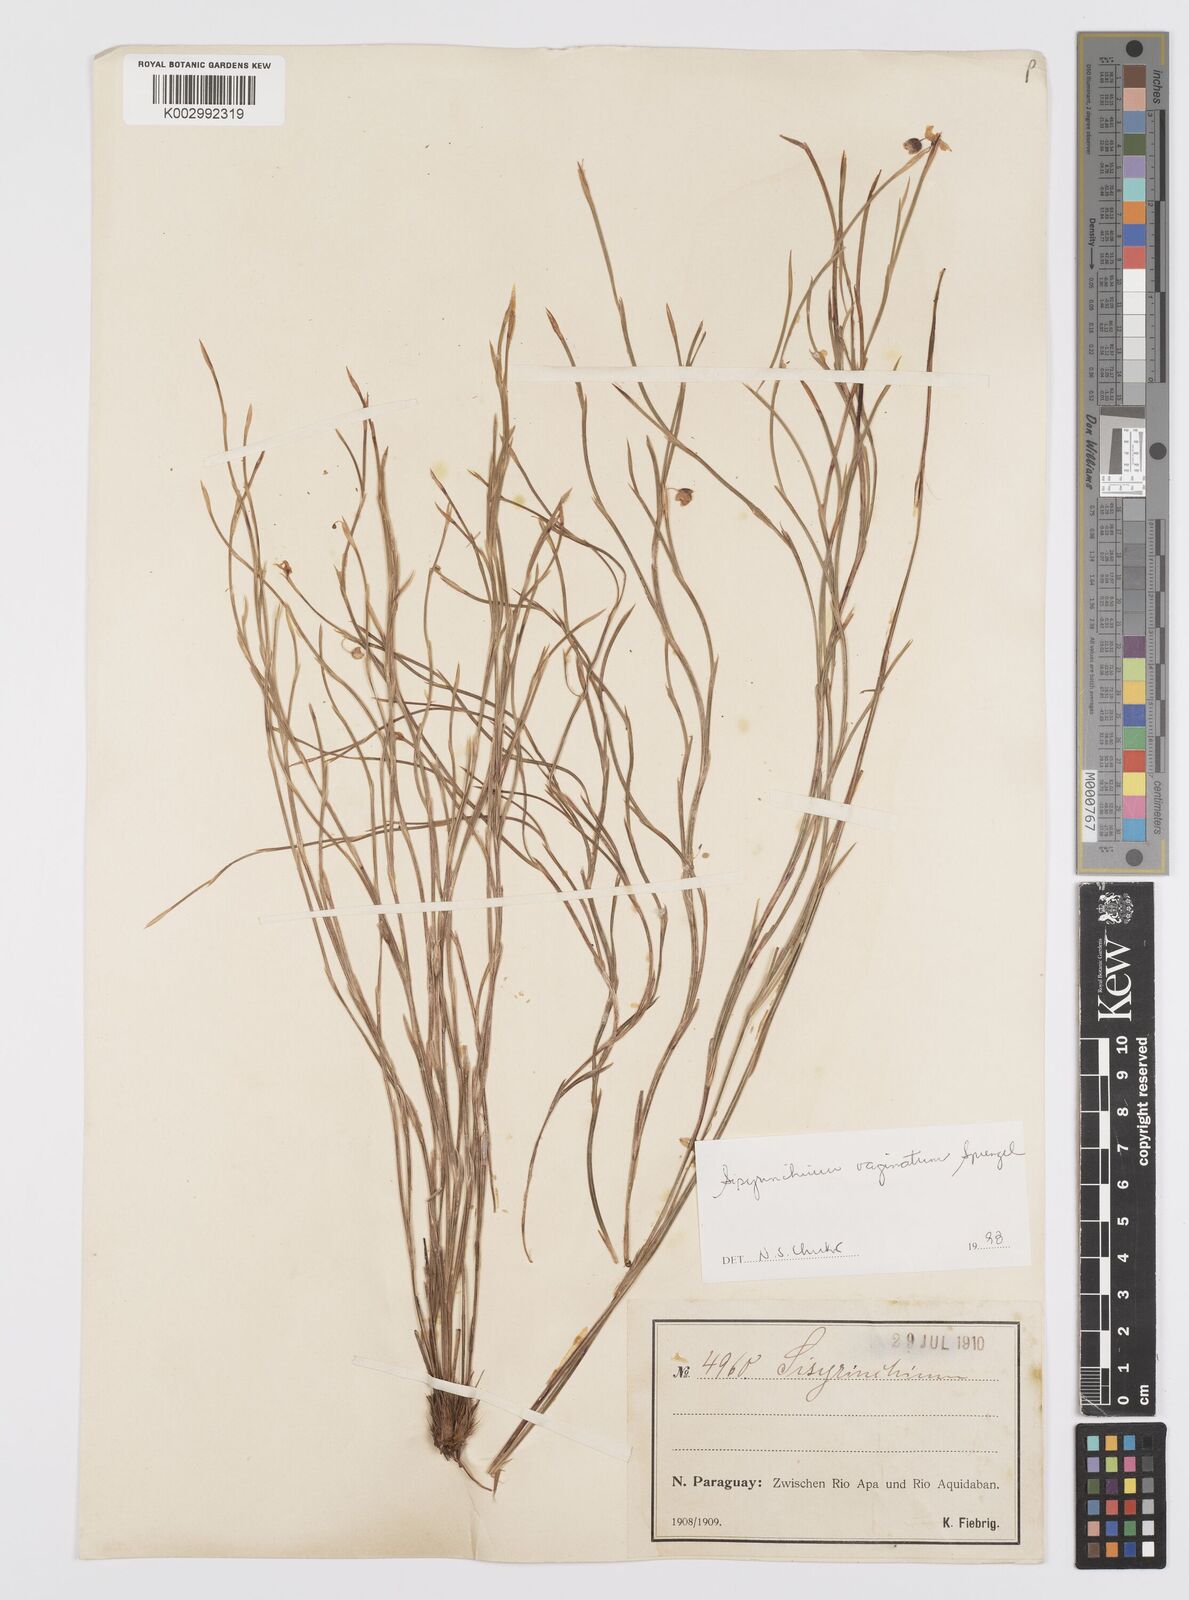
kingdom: Plantae
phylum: Tracheophyta
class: Liliopsida
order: Asparagales
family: Iridaceae
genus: Sisyrinchium
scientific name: Sisyrinchium vaginatum
